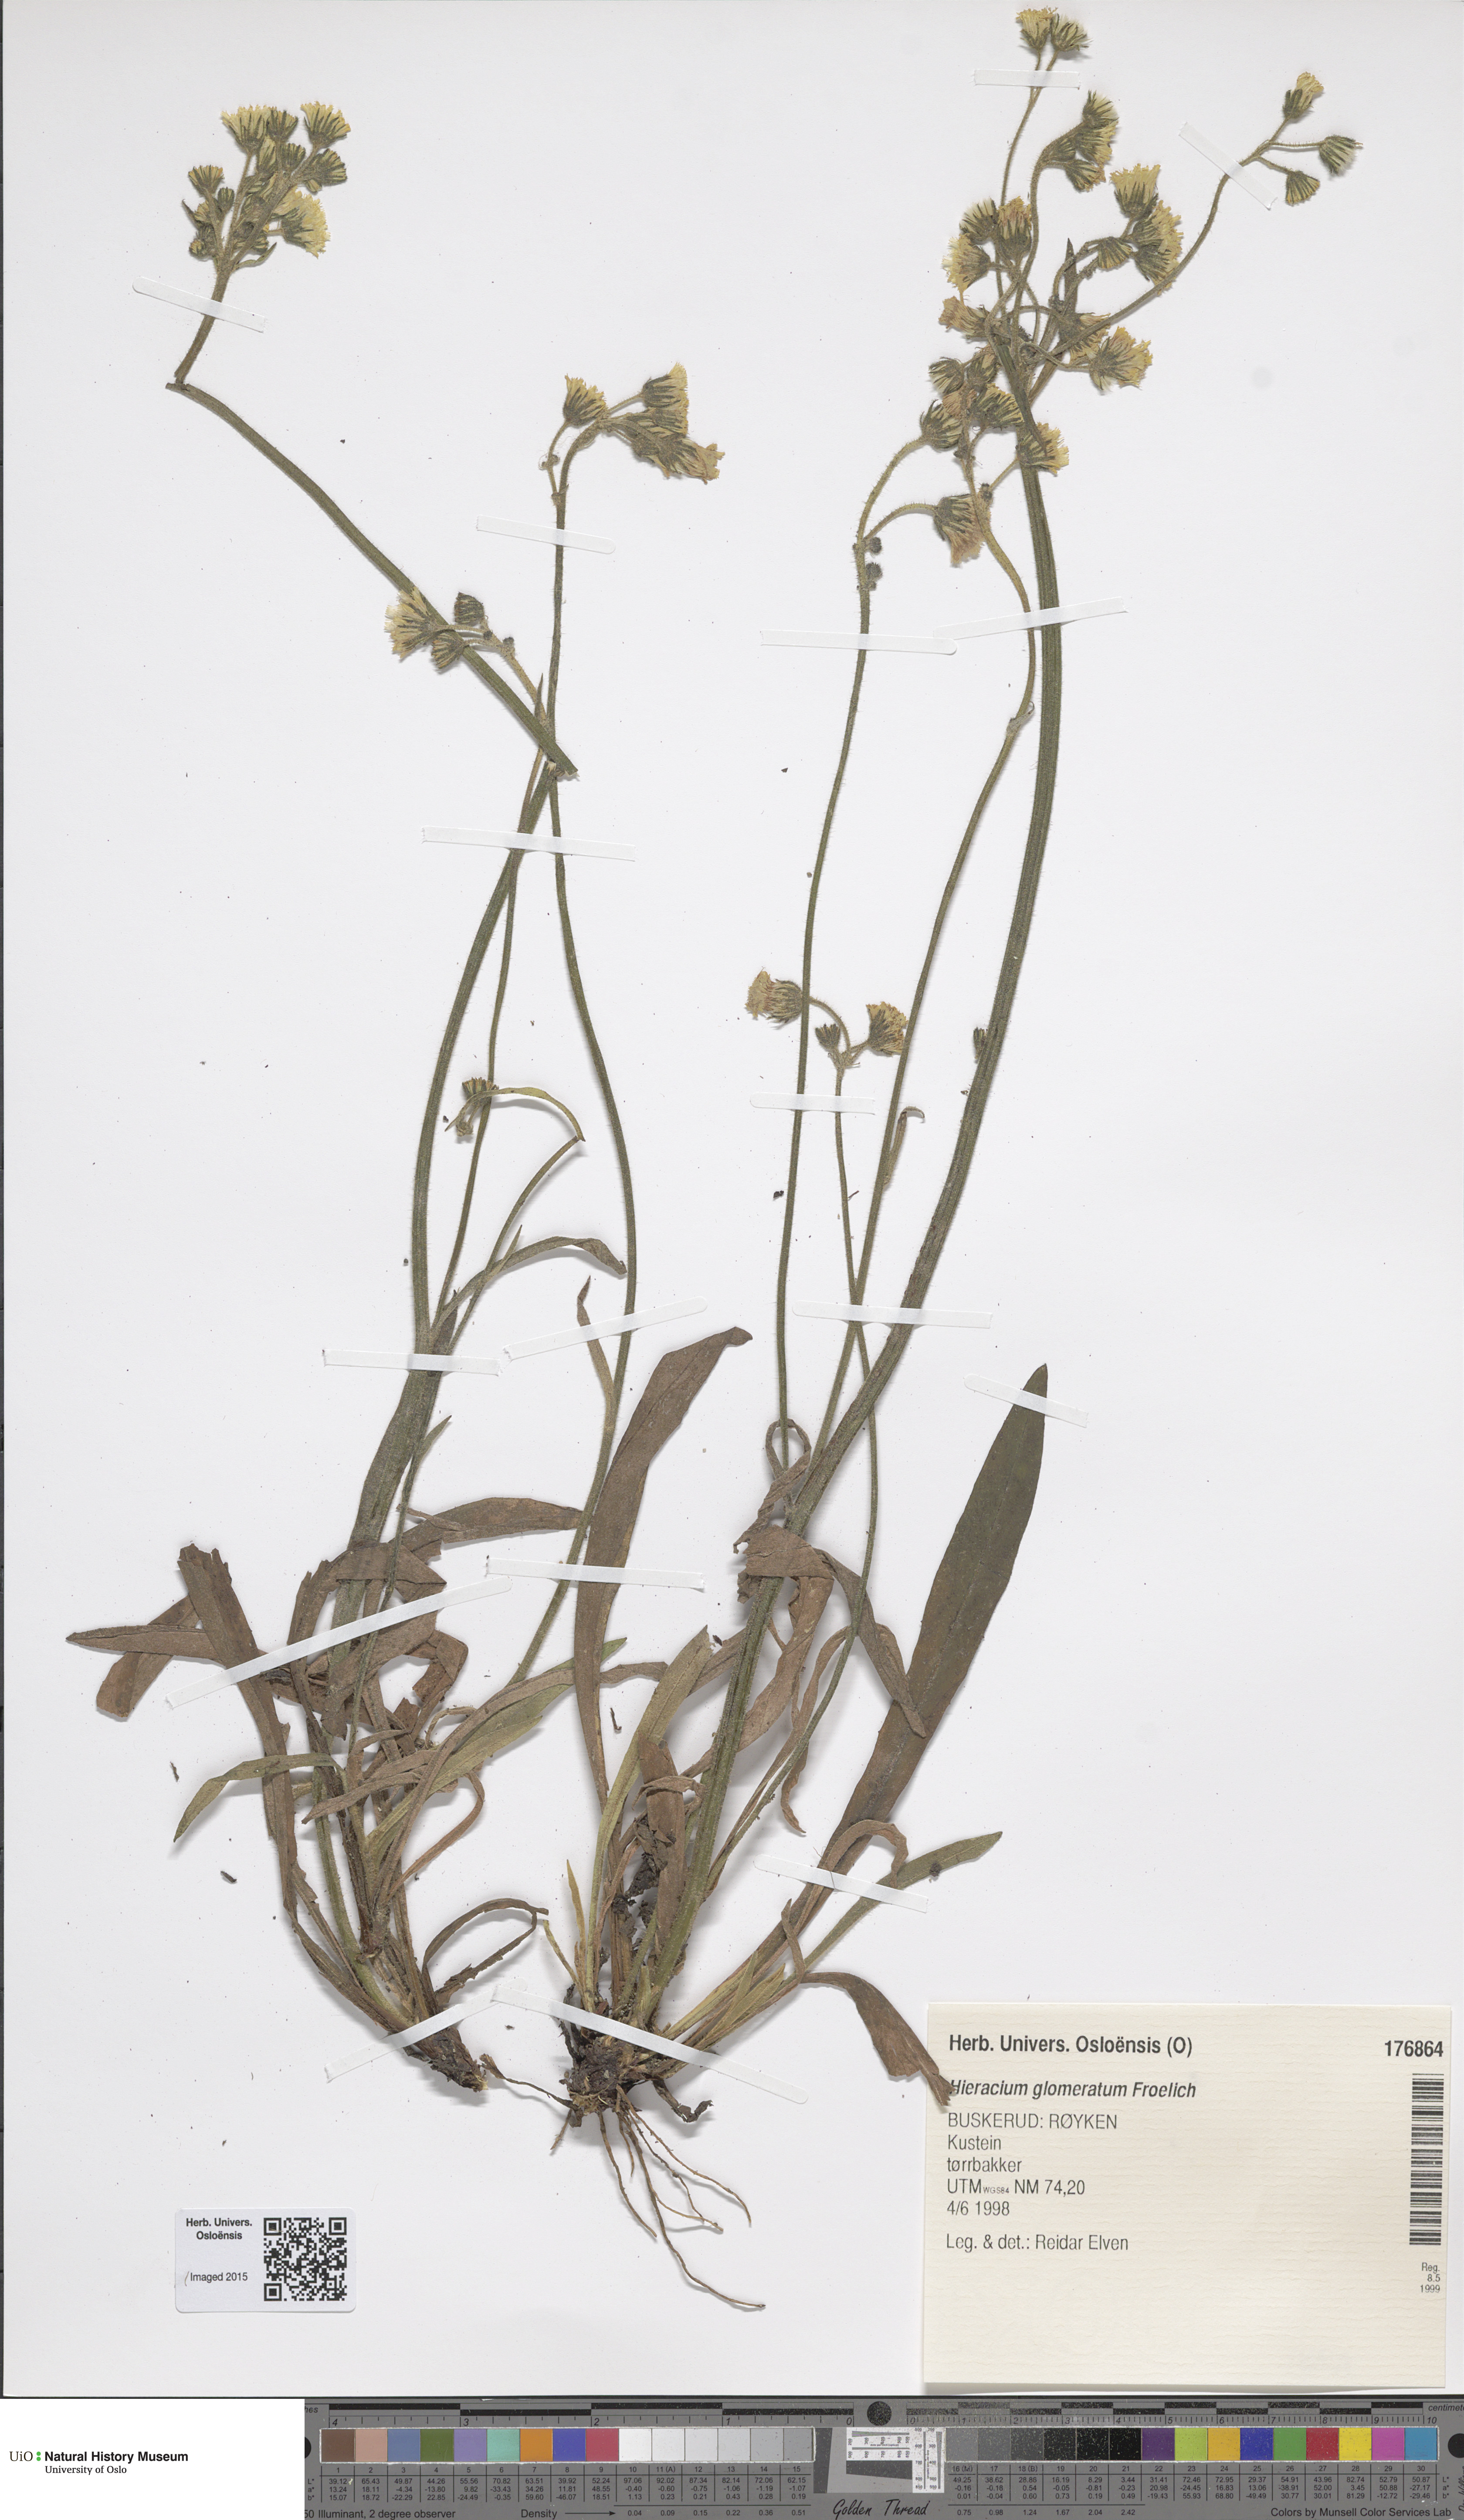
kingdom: Plantae
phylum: Tracheophyta
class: Magnoliopsida
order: Asterales
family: Asteraceae
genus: Pilosella
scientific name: Pilosella glomerata
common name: Queen devil hawkweed
